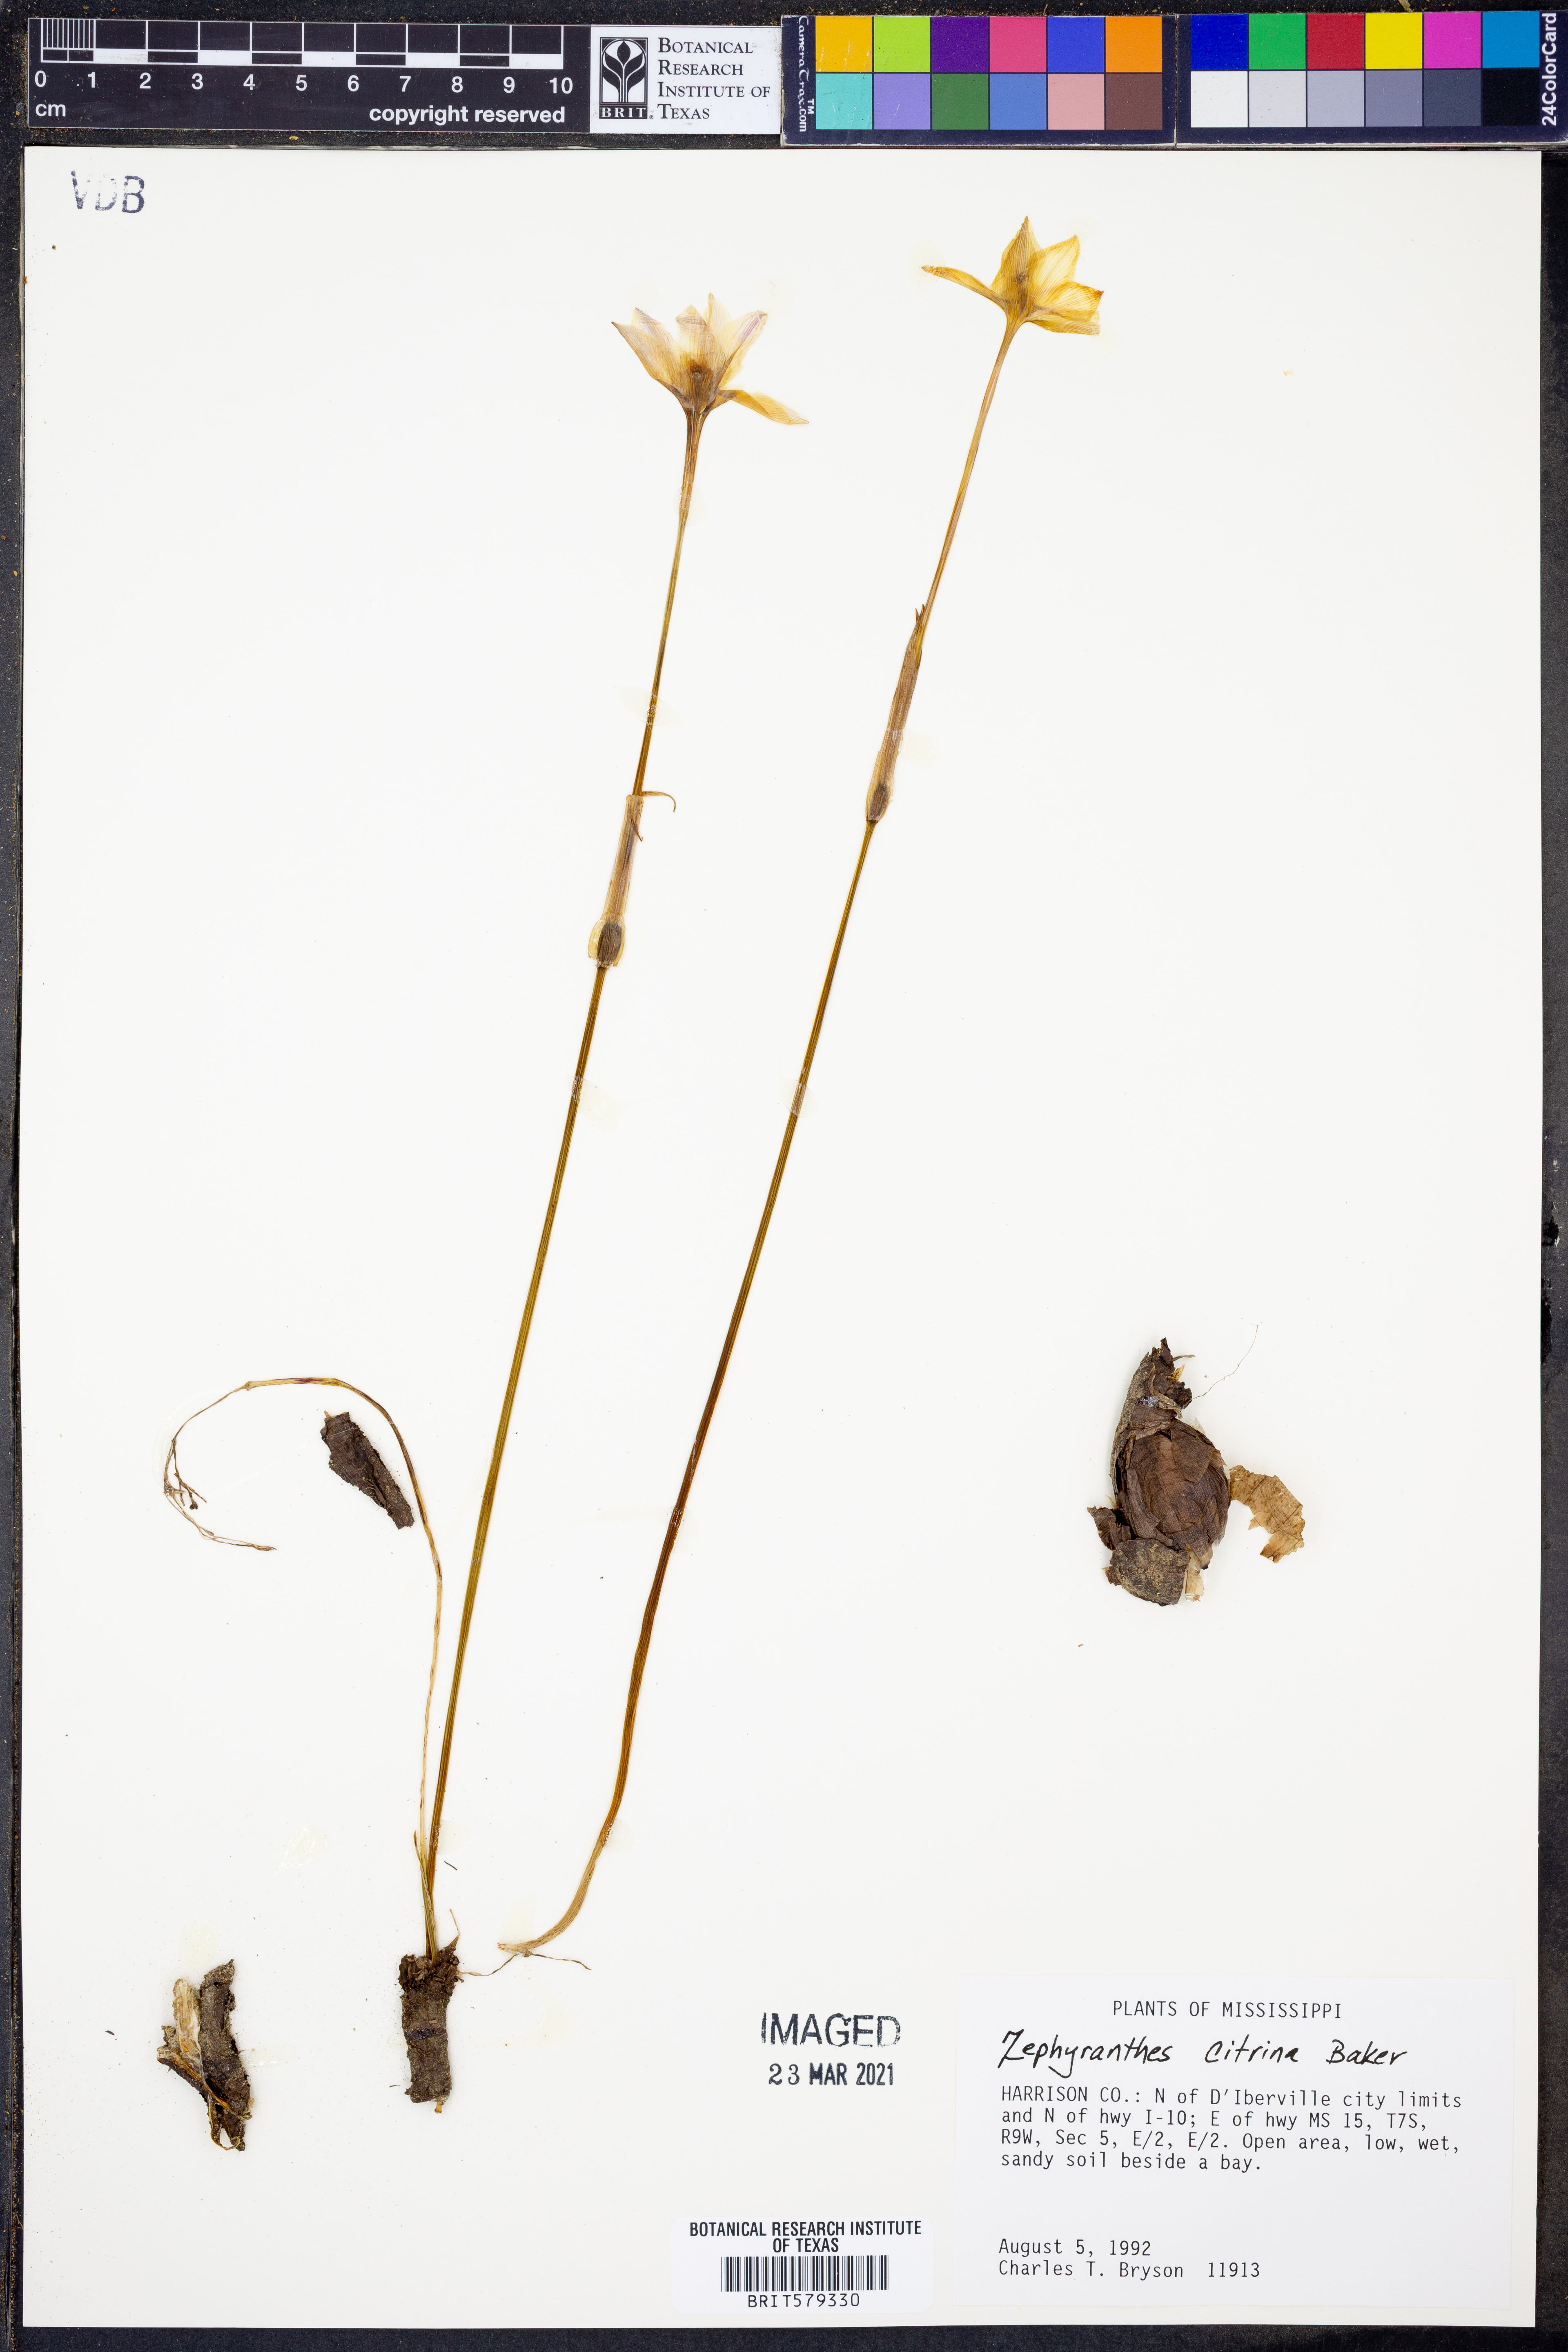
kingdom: Plantae
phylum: Tracheophyta
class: Liliopsida
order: Asparagales
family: Amaryllidaceae
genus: Zephyranthes
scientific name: Zephyranthes citrina
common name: Citron zephyrlily
